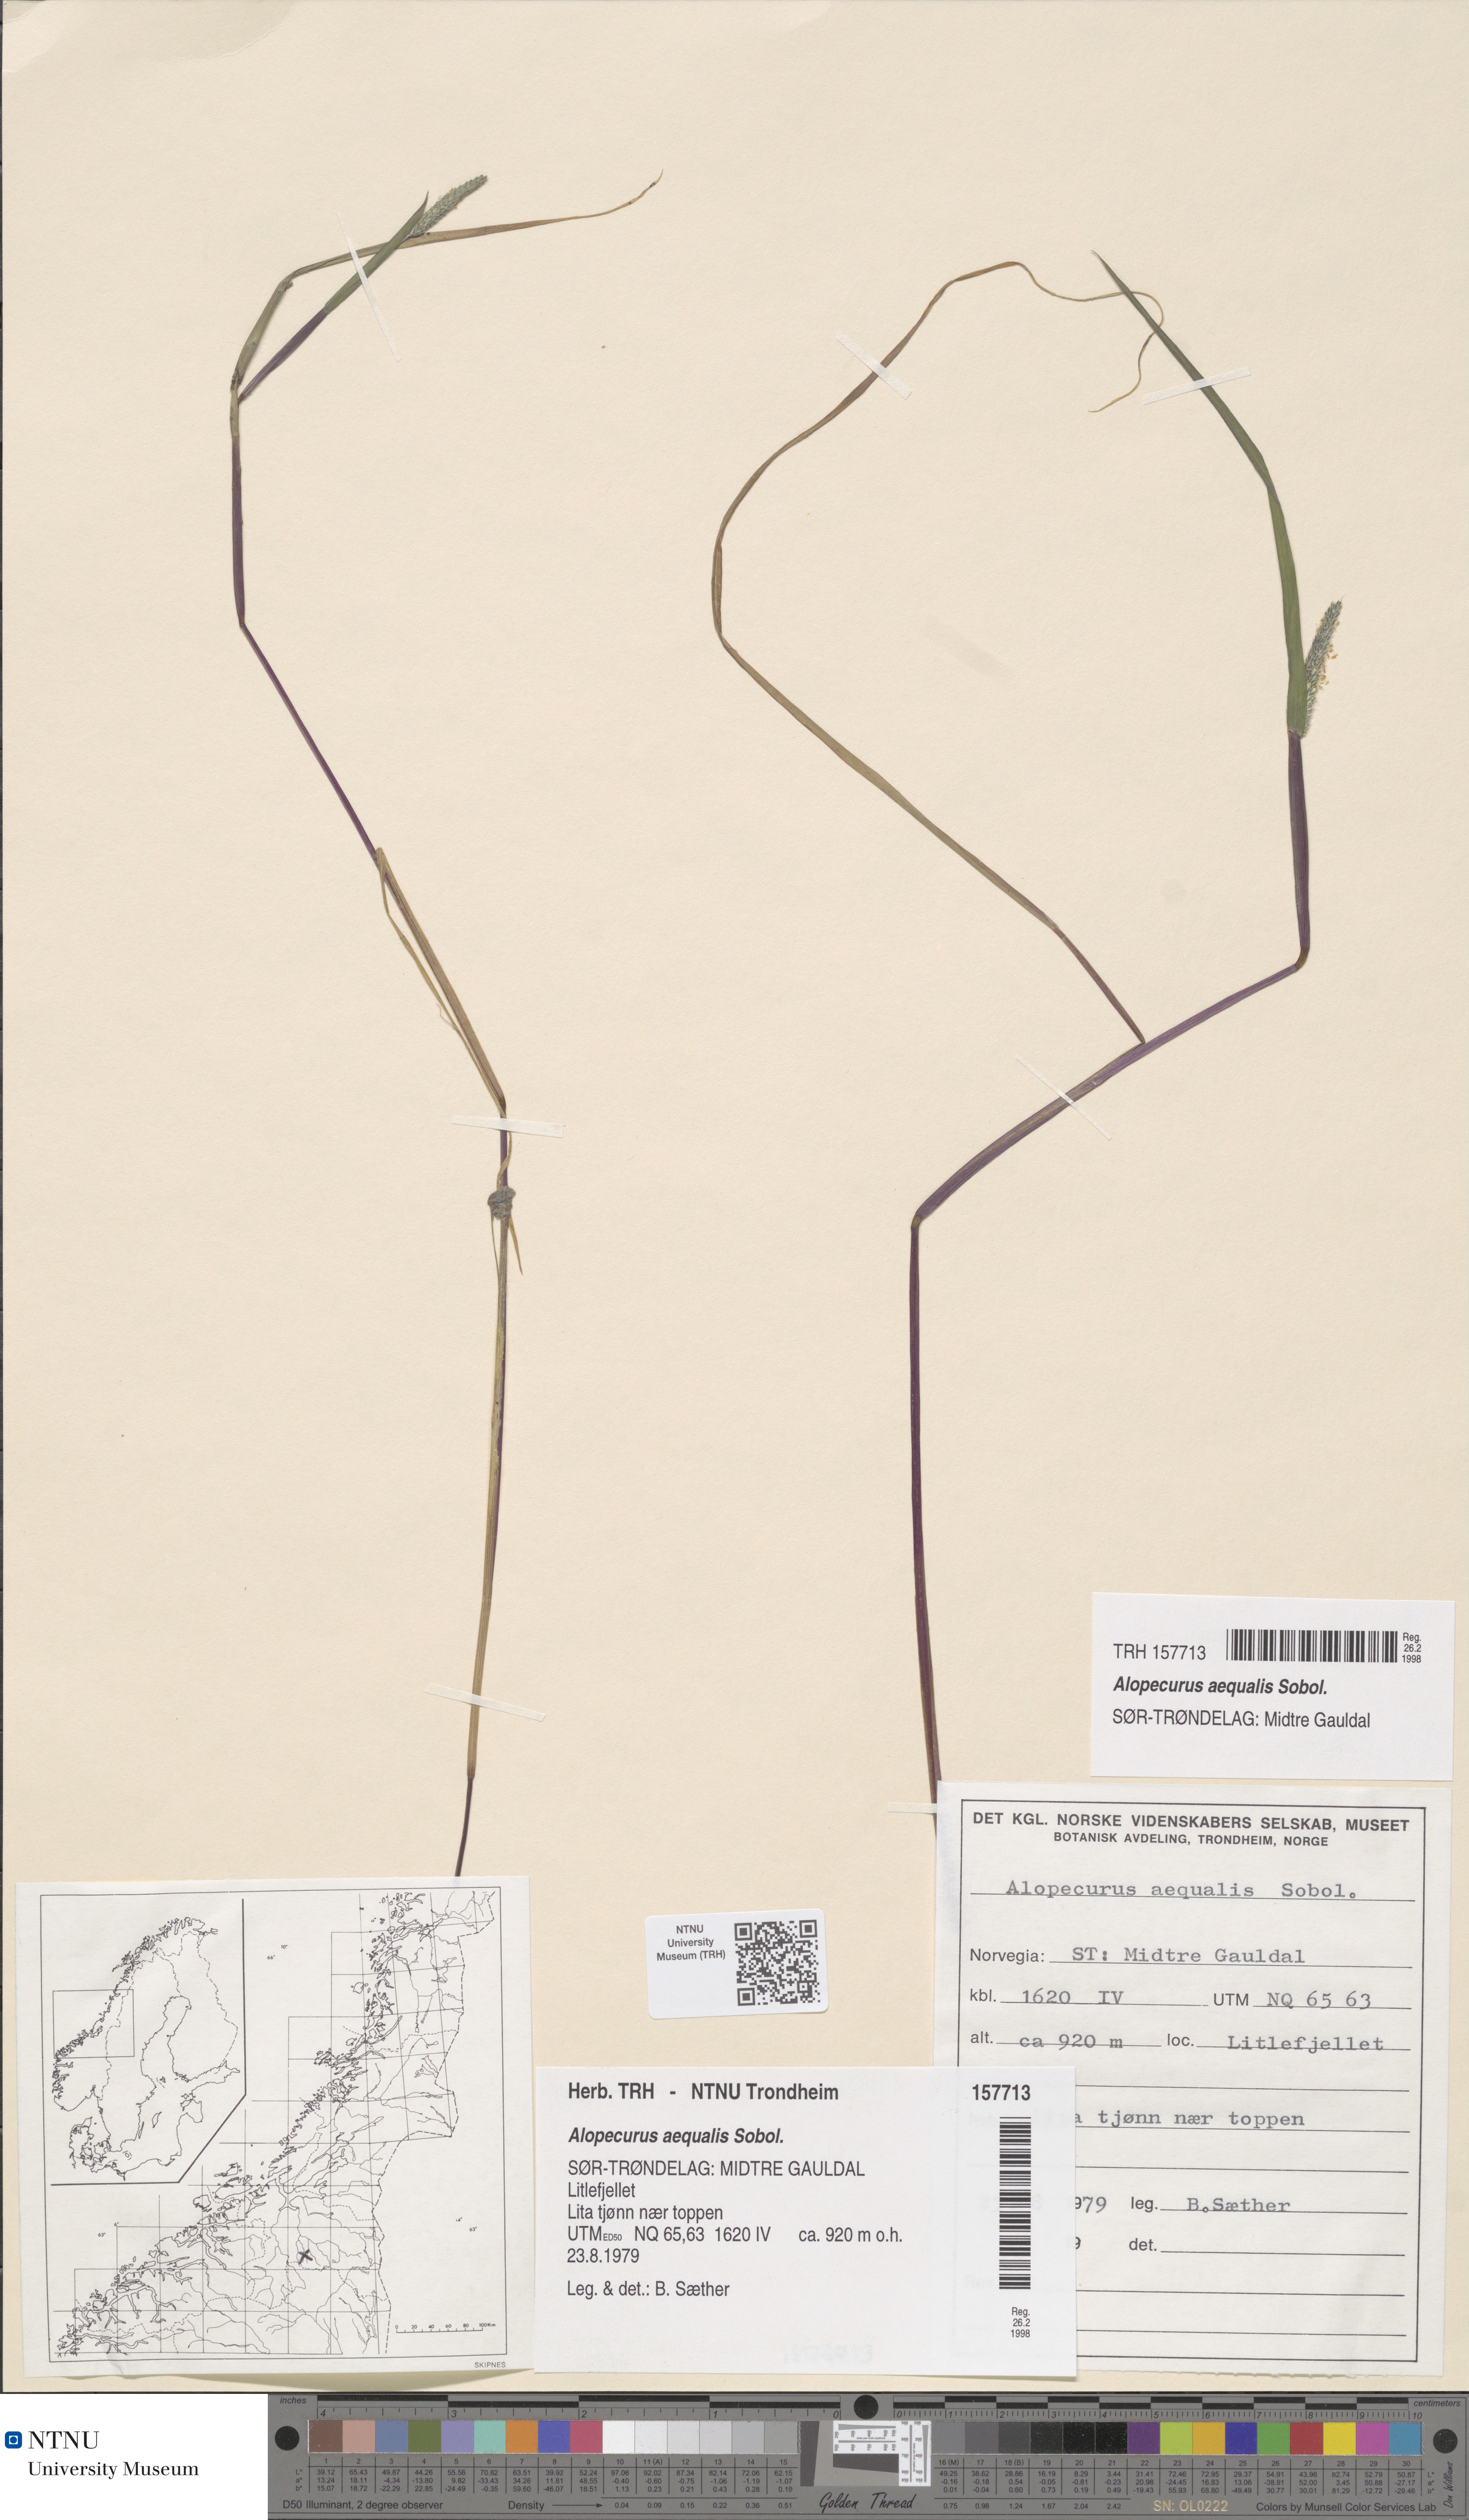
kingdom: Plantae
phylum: Tracheophyta
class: Liliopsida
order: Poales
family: Poaceae
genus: Alopecurus
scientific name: Alopecurus aequalis
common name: Orange foxtail
